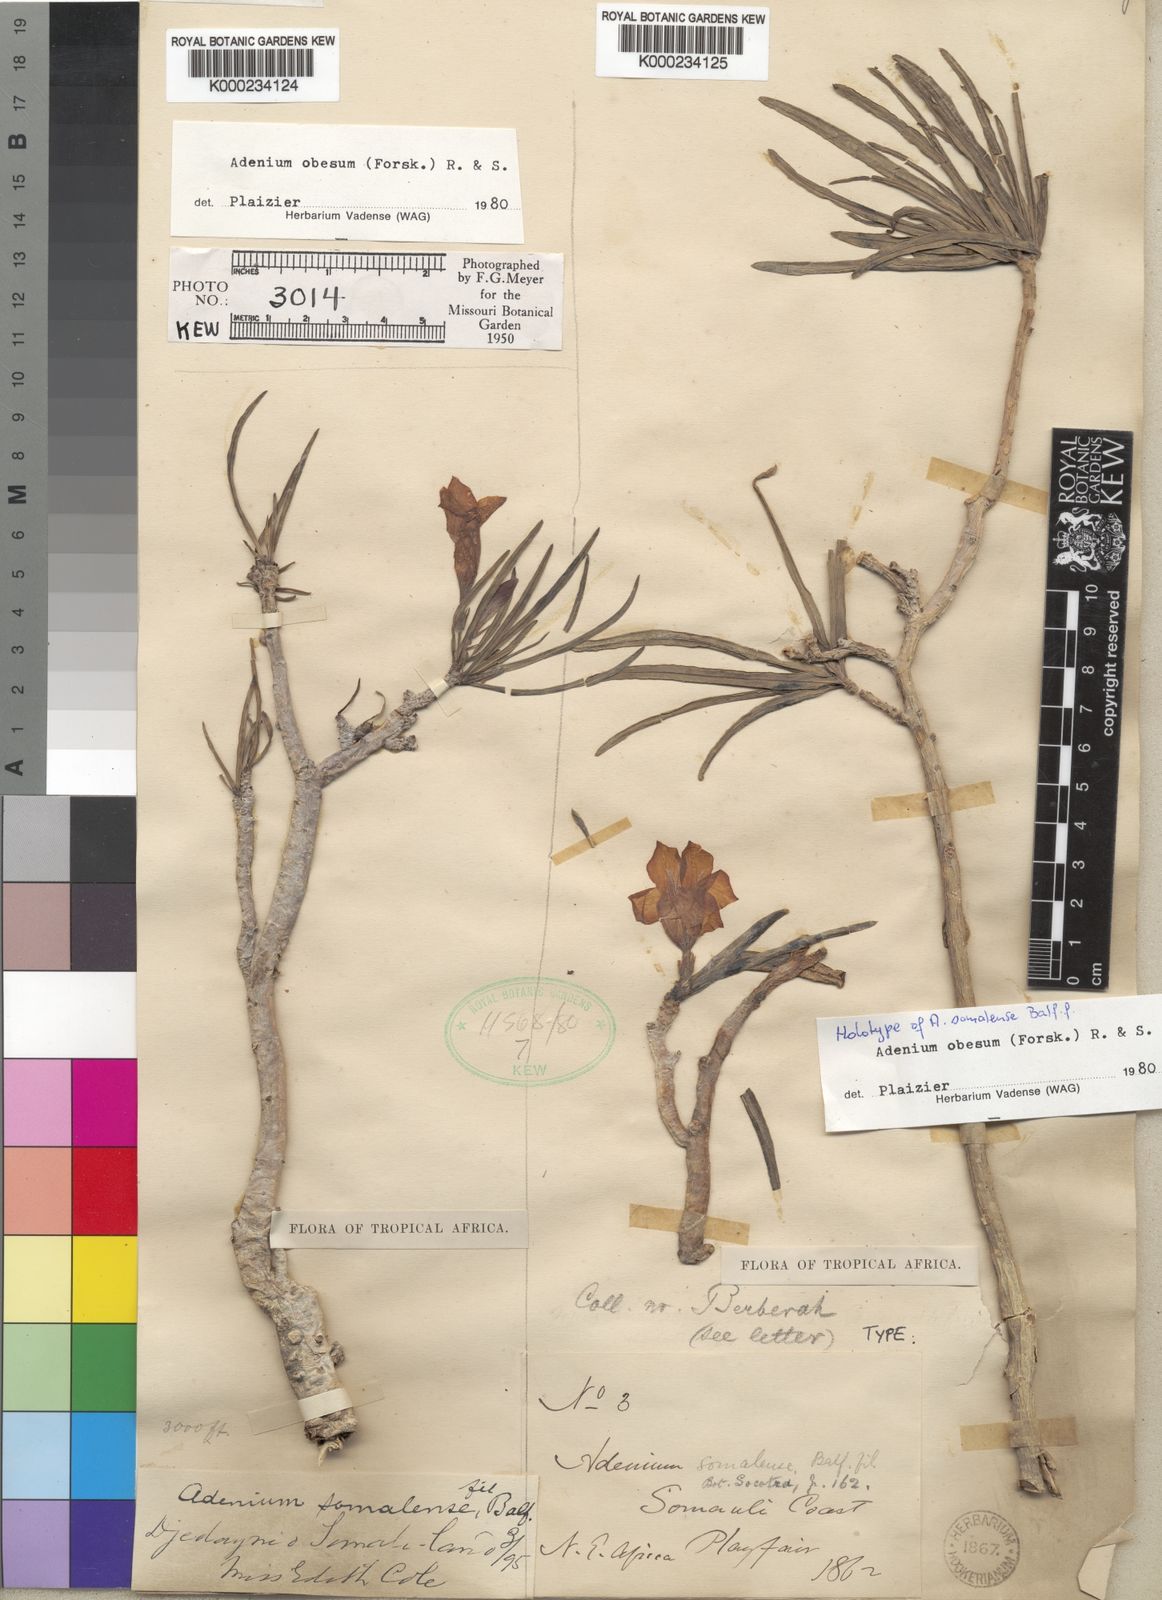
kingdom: Plantae
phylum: Tracheophyta
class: Magnoliopsida
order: Gentianales
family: Apocynaceae
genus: Adenium
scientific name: Adenium obesum
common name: Desert-rose
